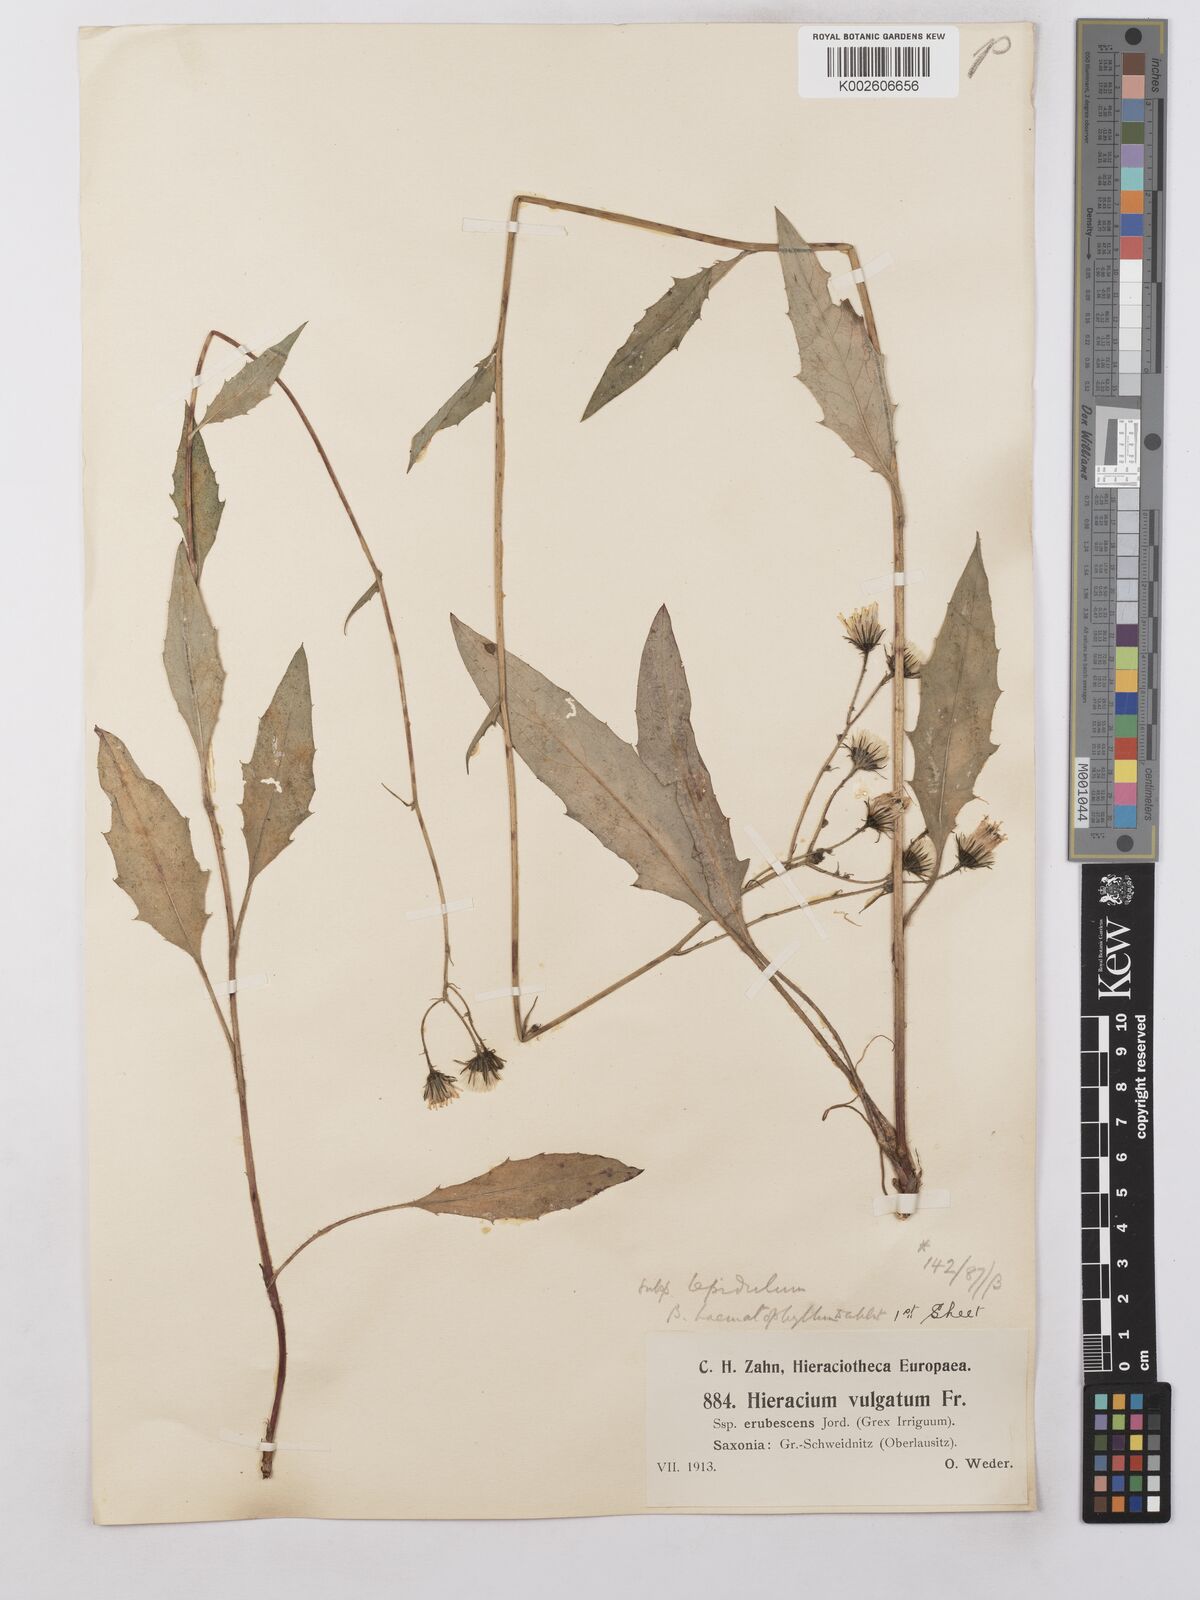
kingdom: Plantae
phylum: Tracheophyta
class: Magnoliopsida
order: Asterales
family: Asteraceae
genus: Hieracium
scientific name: Hieracium lachenalii
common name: Common hawkweed
